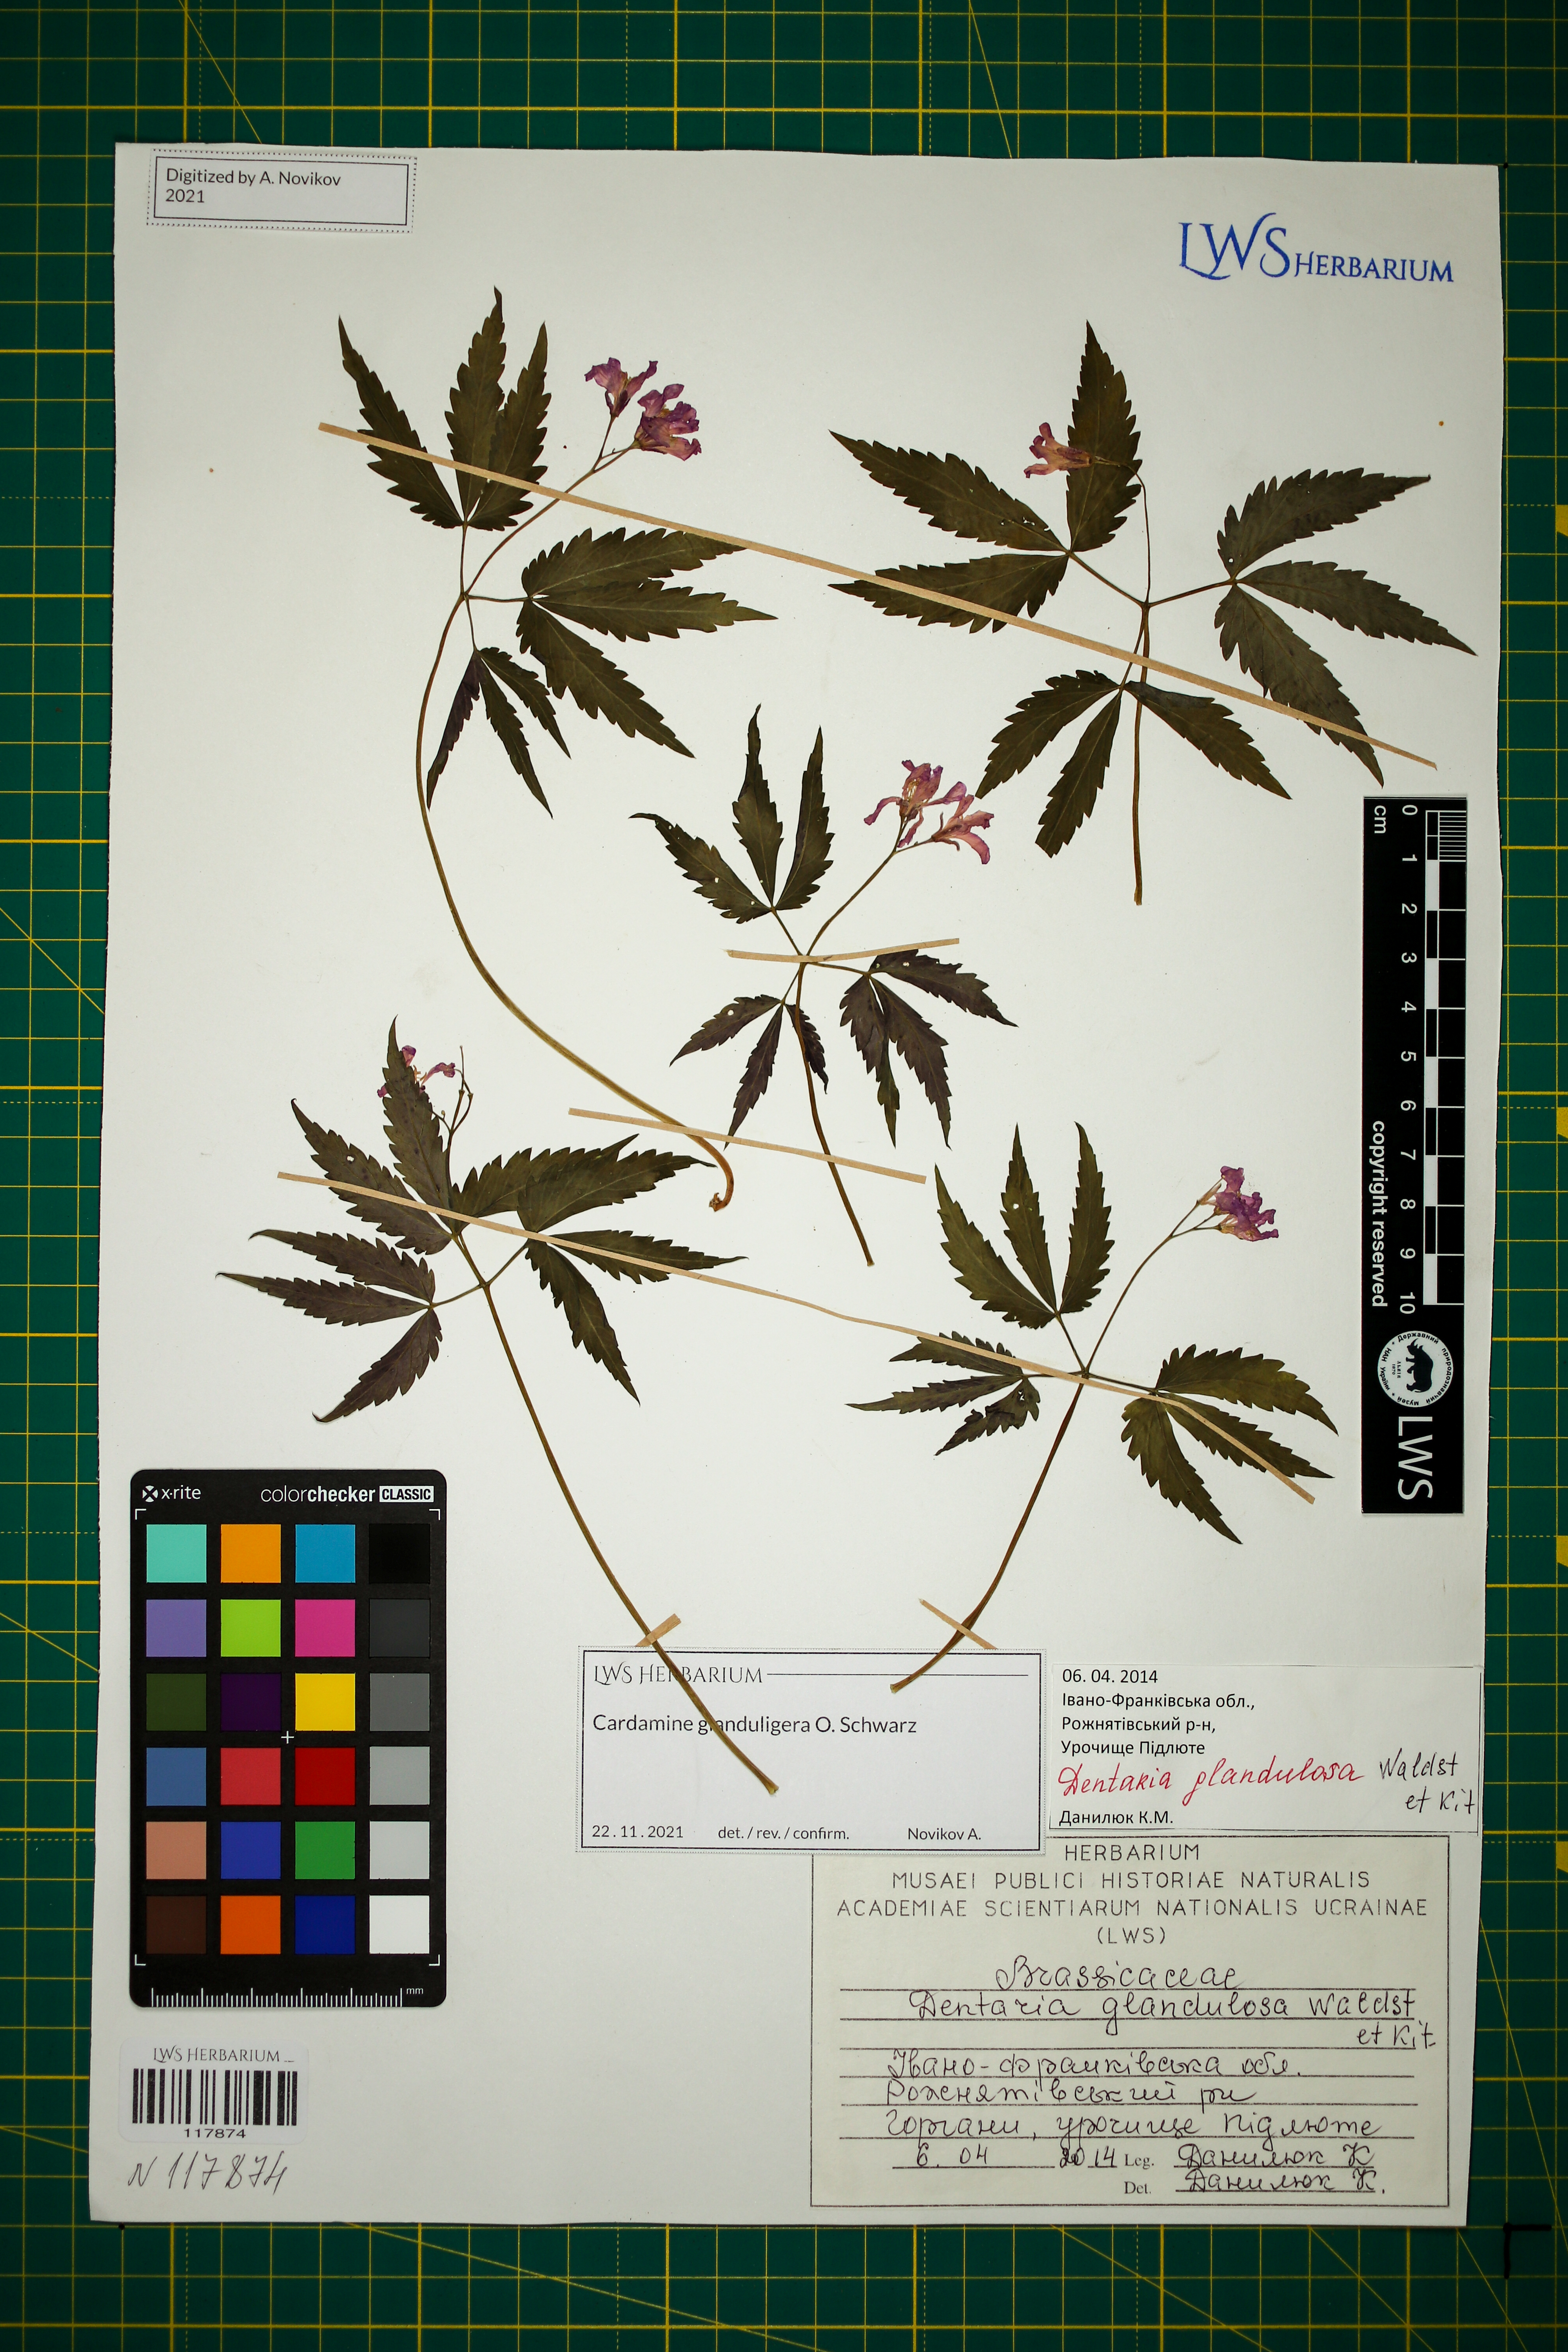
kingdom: Plantae
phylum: Tracheophyta
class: Magnoliopsida
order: Brassicales
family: Brassicaceae
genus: Cardamine
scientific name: Cardamine glanduligera
